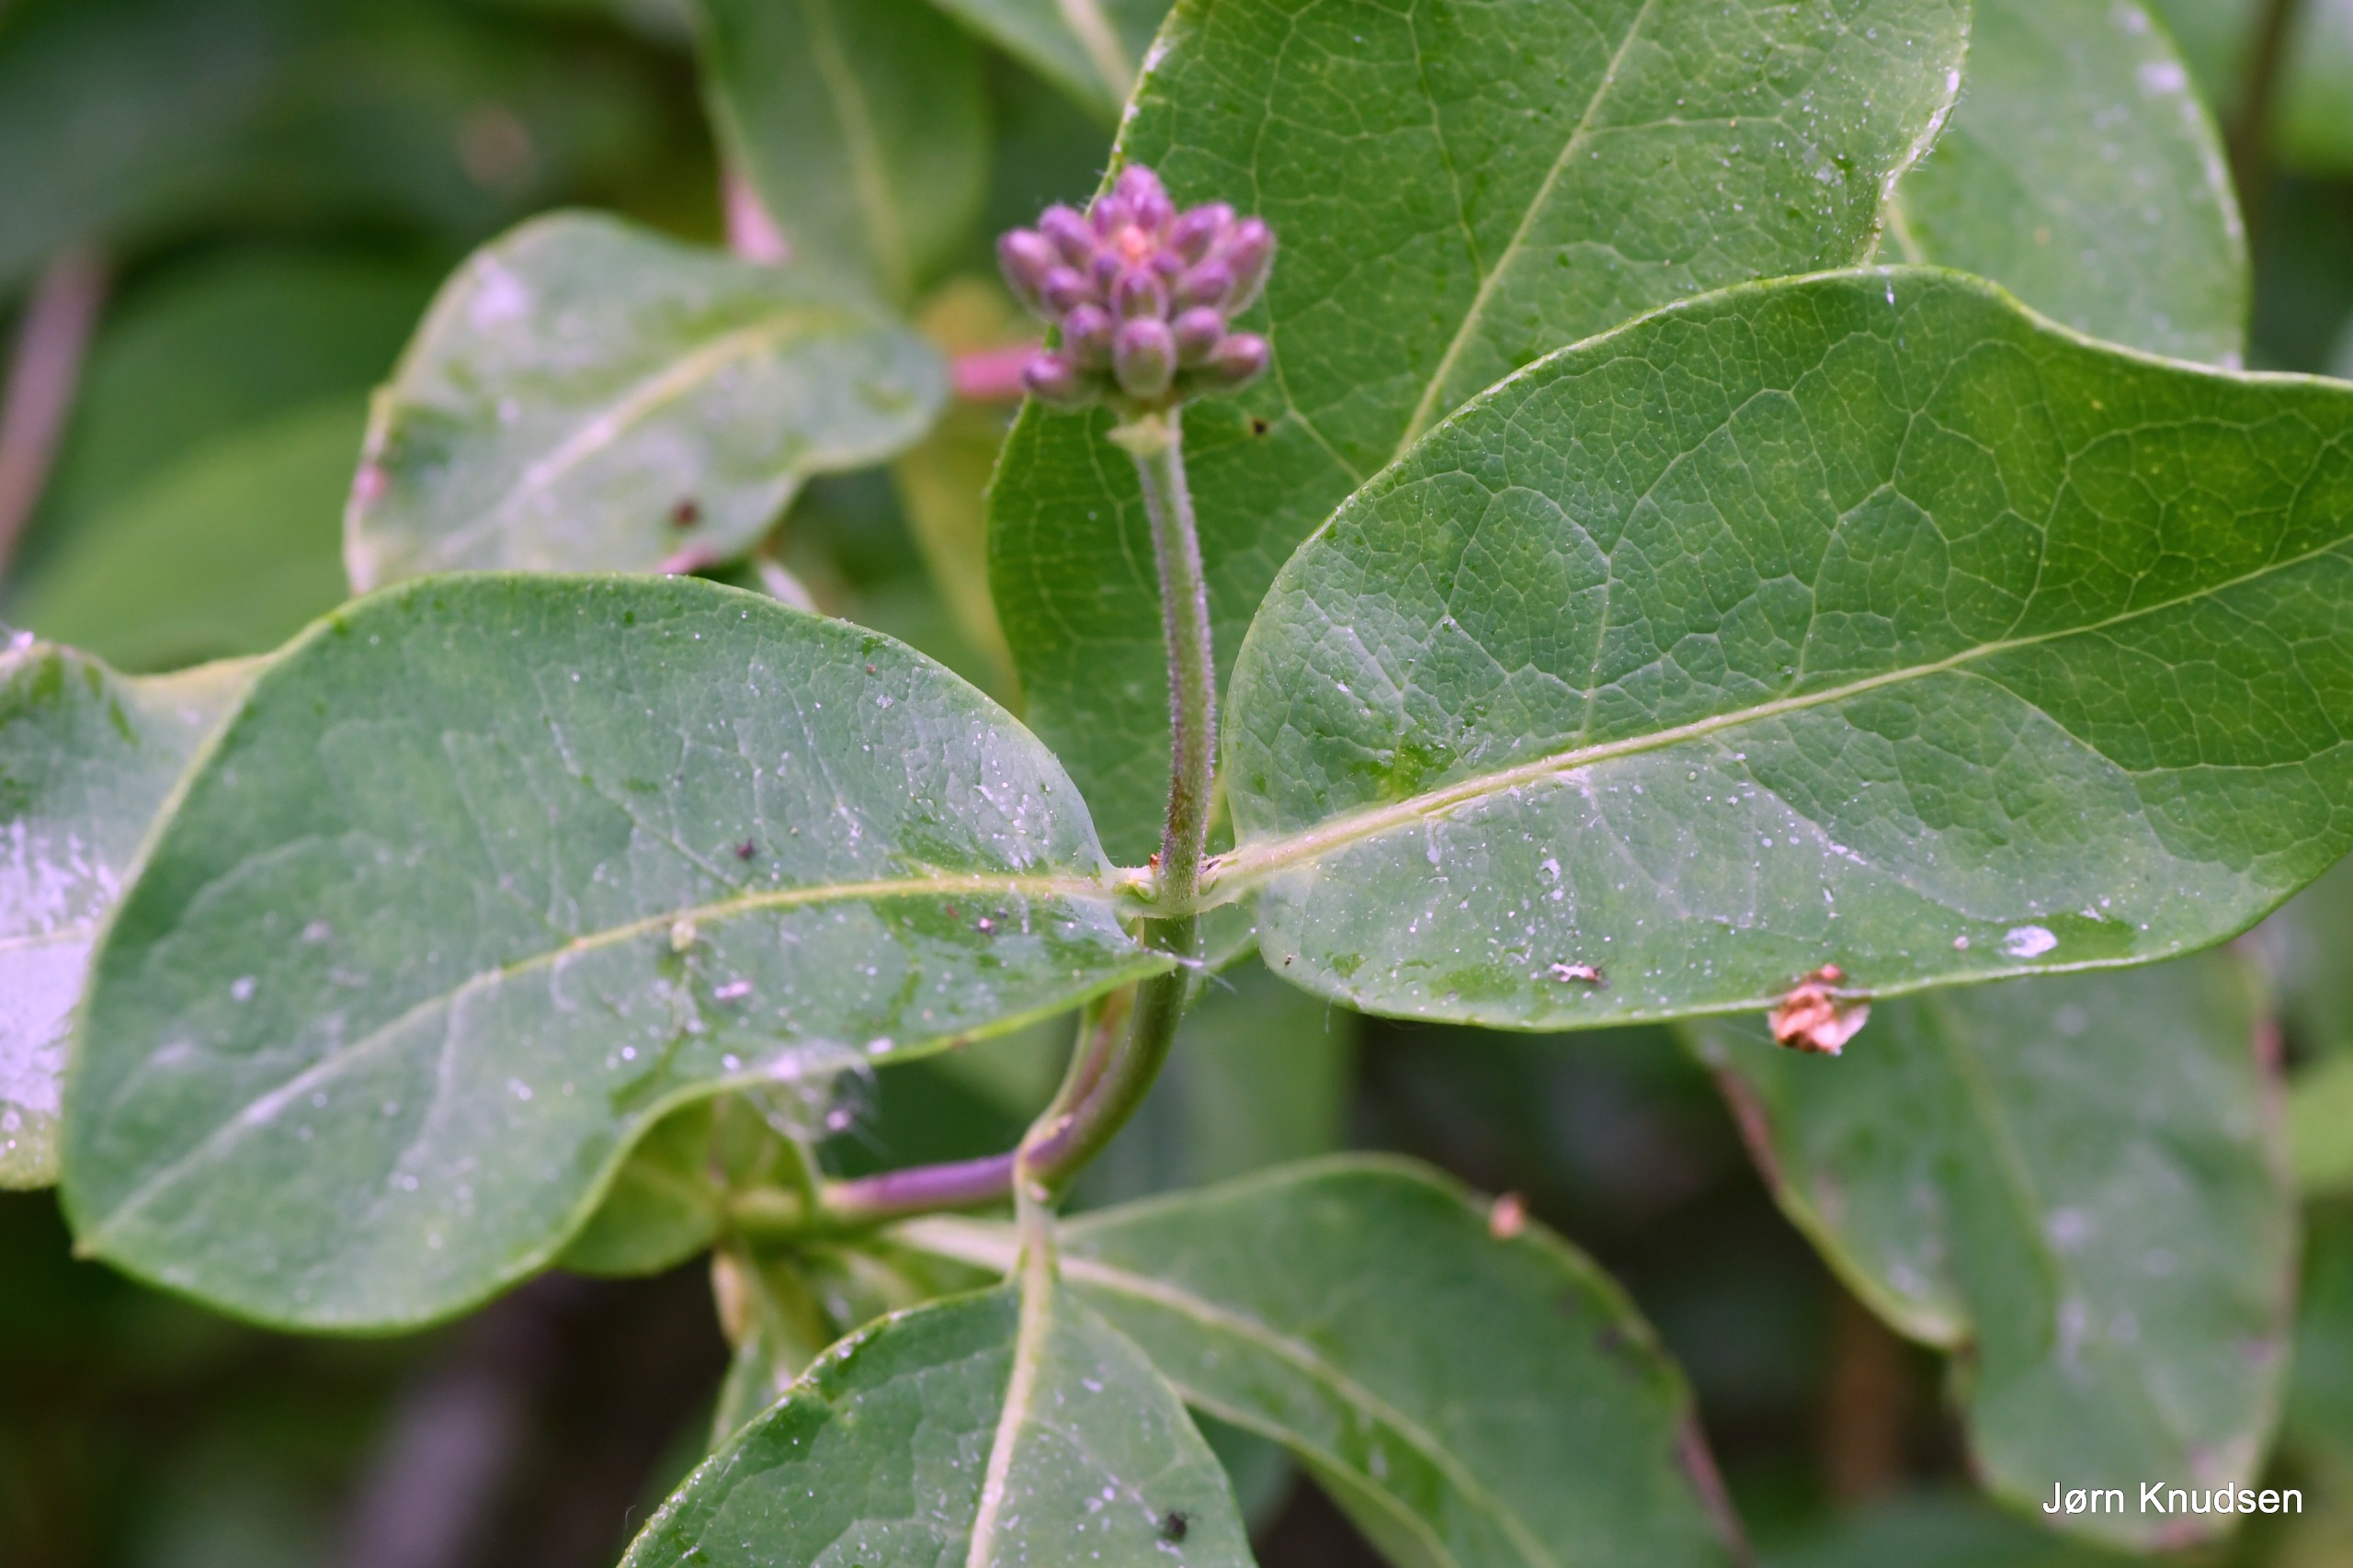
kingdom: Plantae
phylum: Tracheophyta
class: Magnoliopsida
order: Dipsacales
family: Caprifoliaceae
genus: Lonicera
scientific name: Lonicera periclymenum
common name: Almindelig gedeblad
